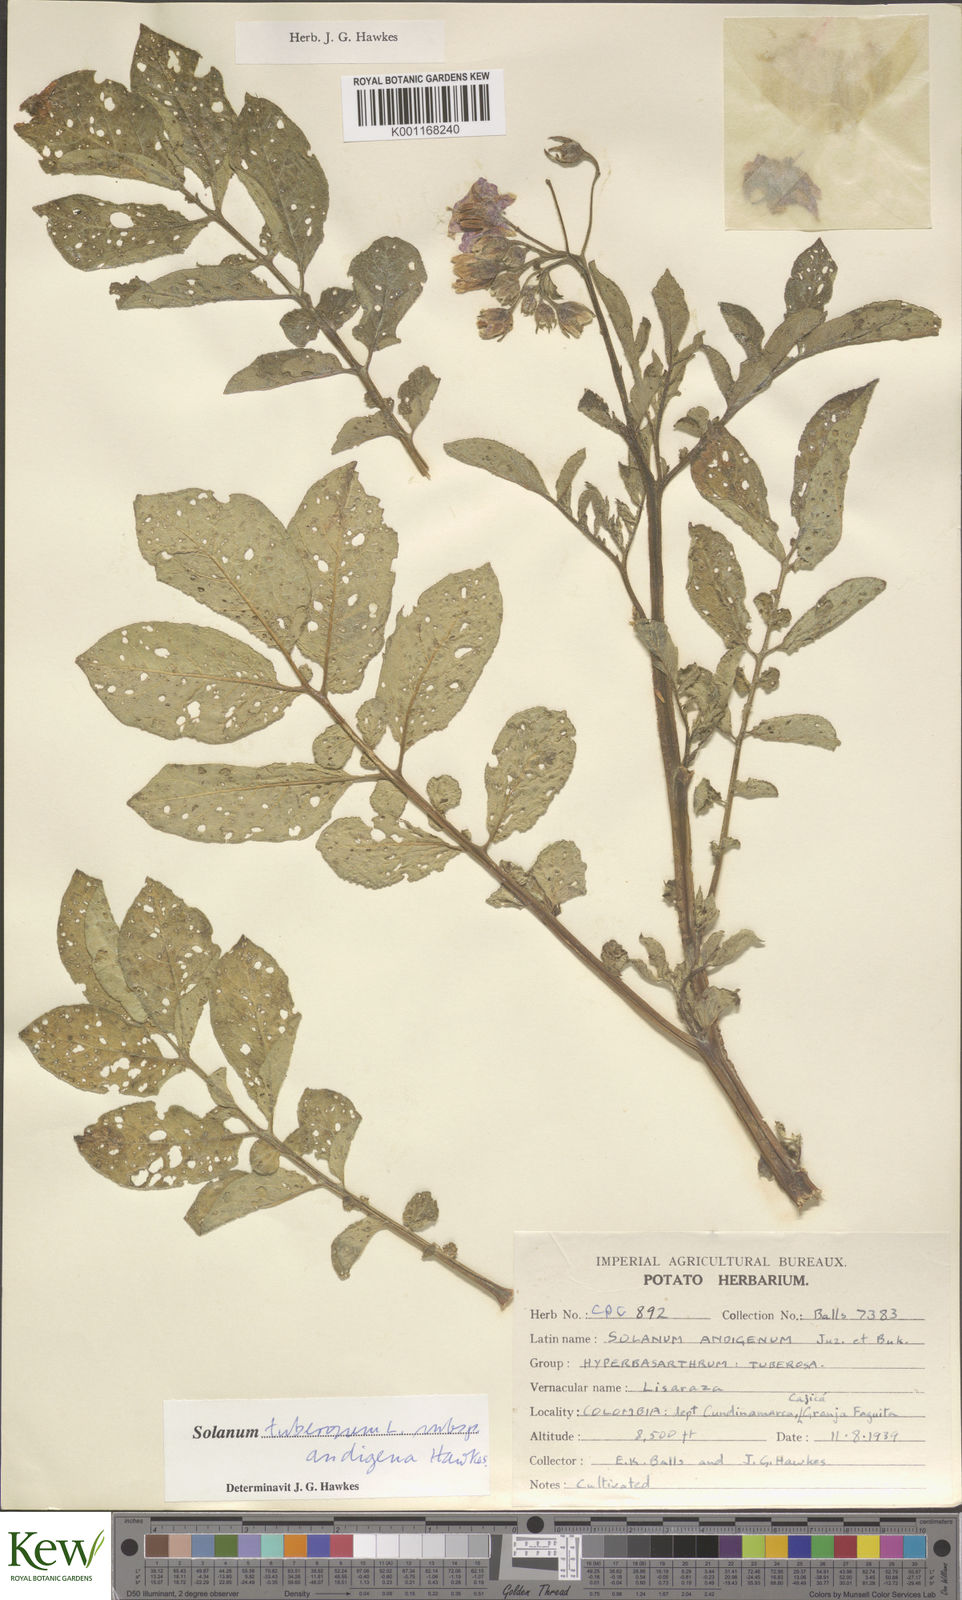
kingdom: Plantae
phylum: Tracheophyta
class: Magnoliopsida
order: Solanales
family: Solanaceae
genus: Solanum
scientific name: Solanum tuberosum
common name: Potato
